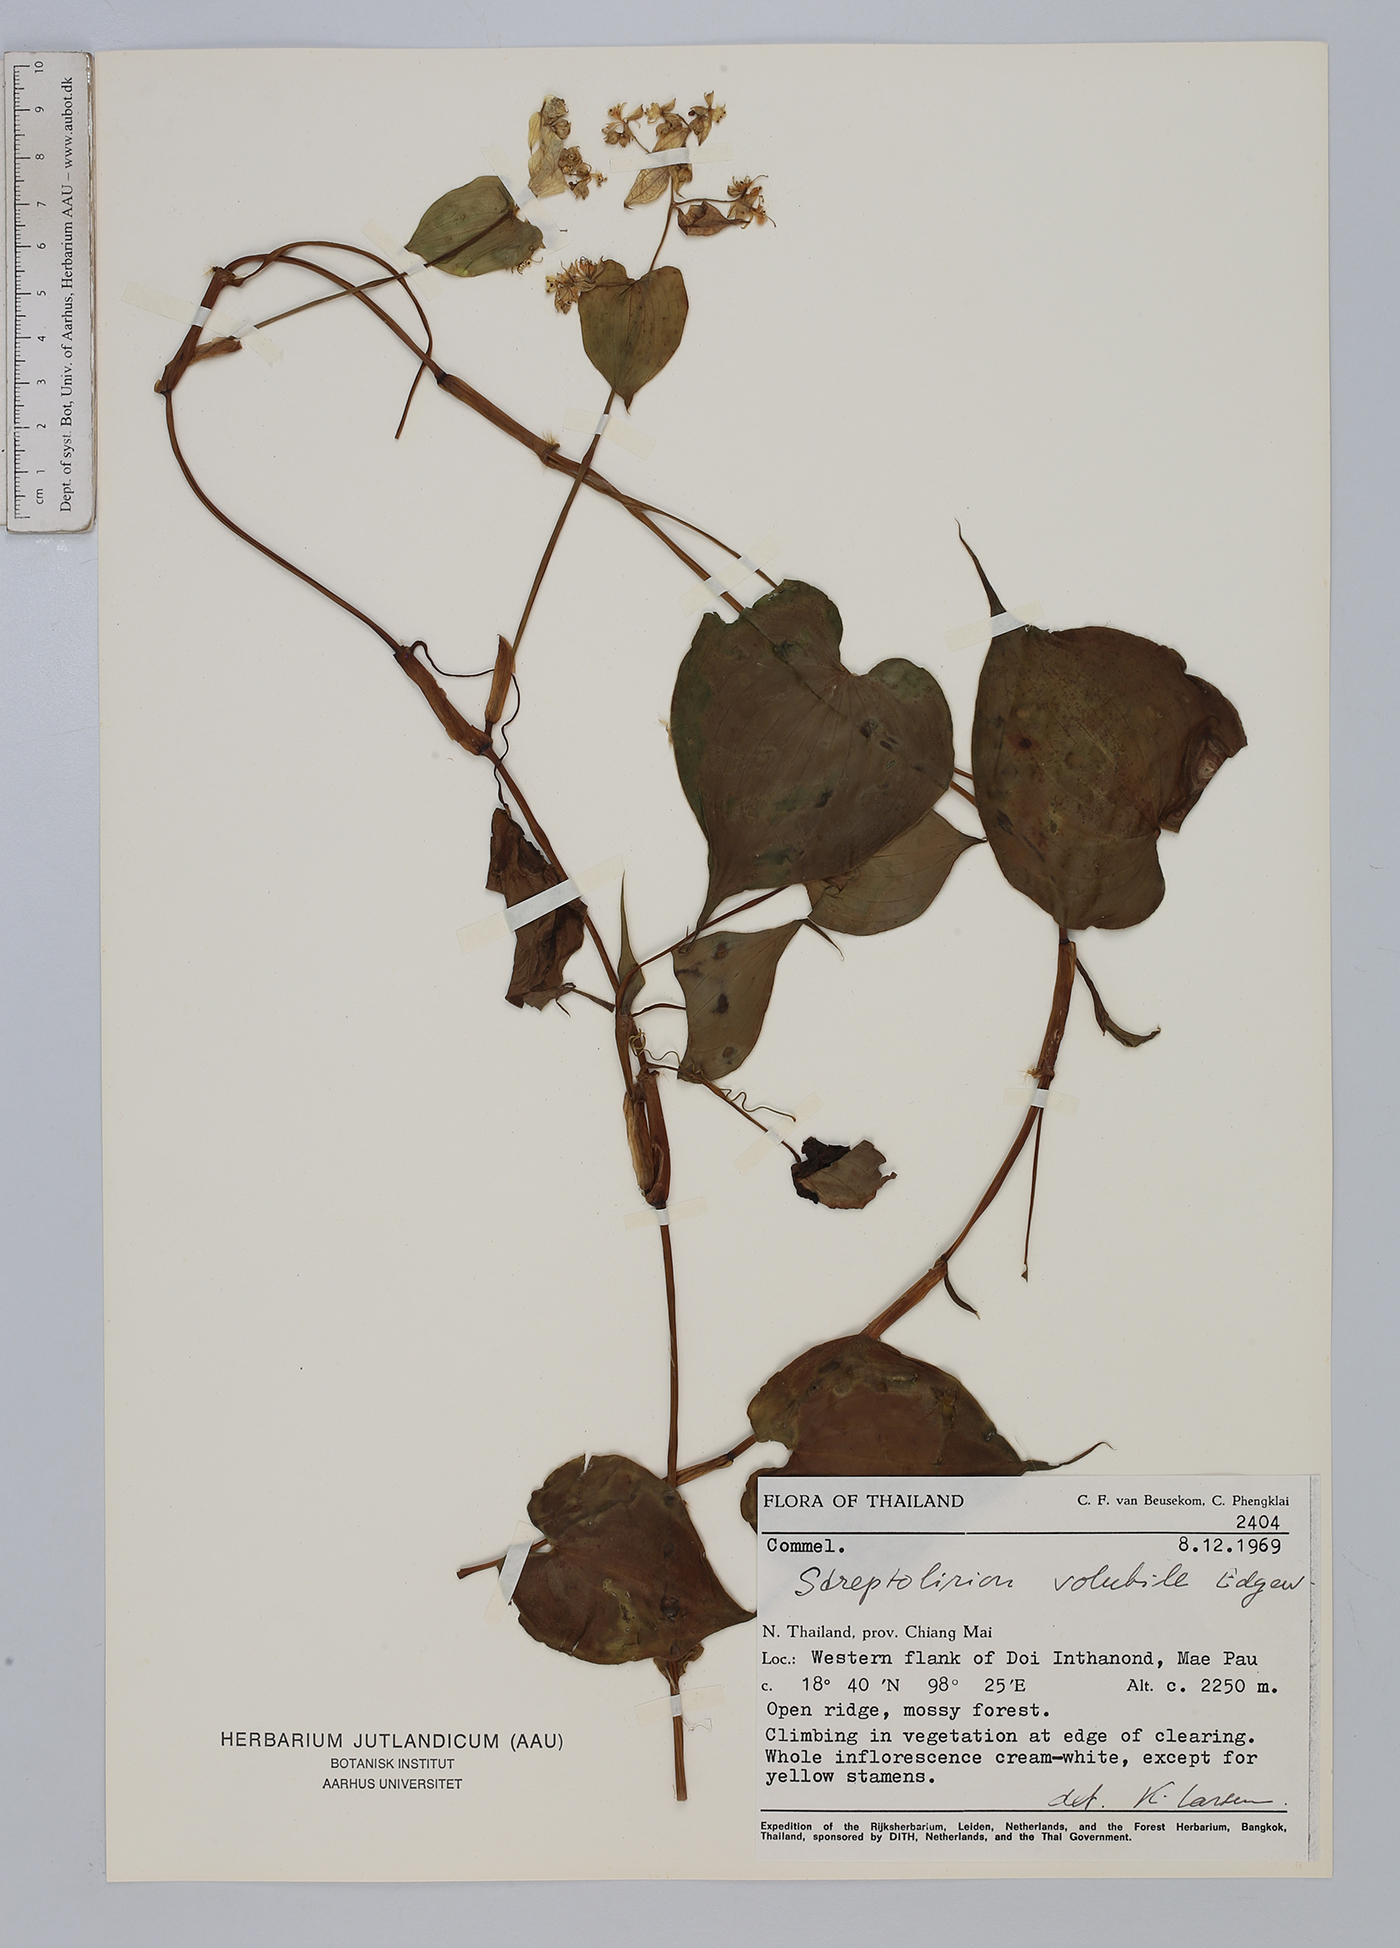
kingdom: Plantae
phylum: Tracheophyta
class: Liliopsida
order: Commelinales
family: Commelinaceae
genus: Streptolirion
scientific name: Streptolirion volubile
